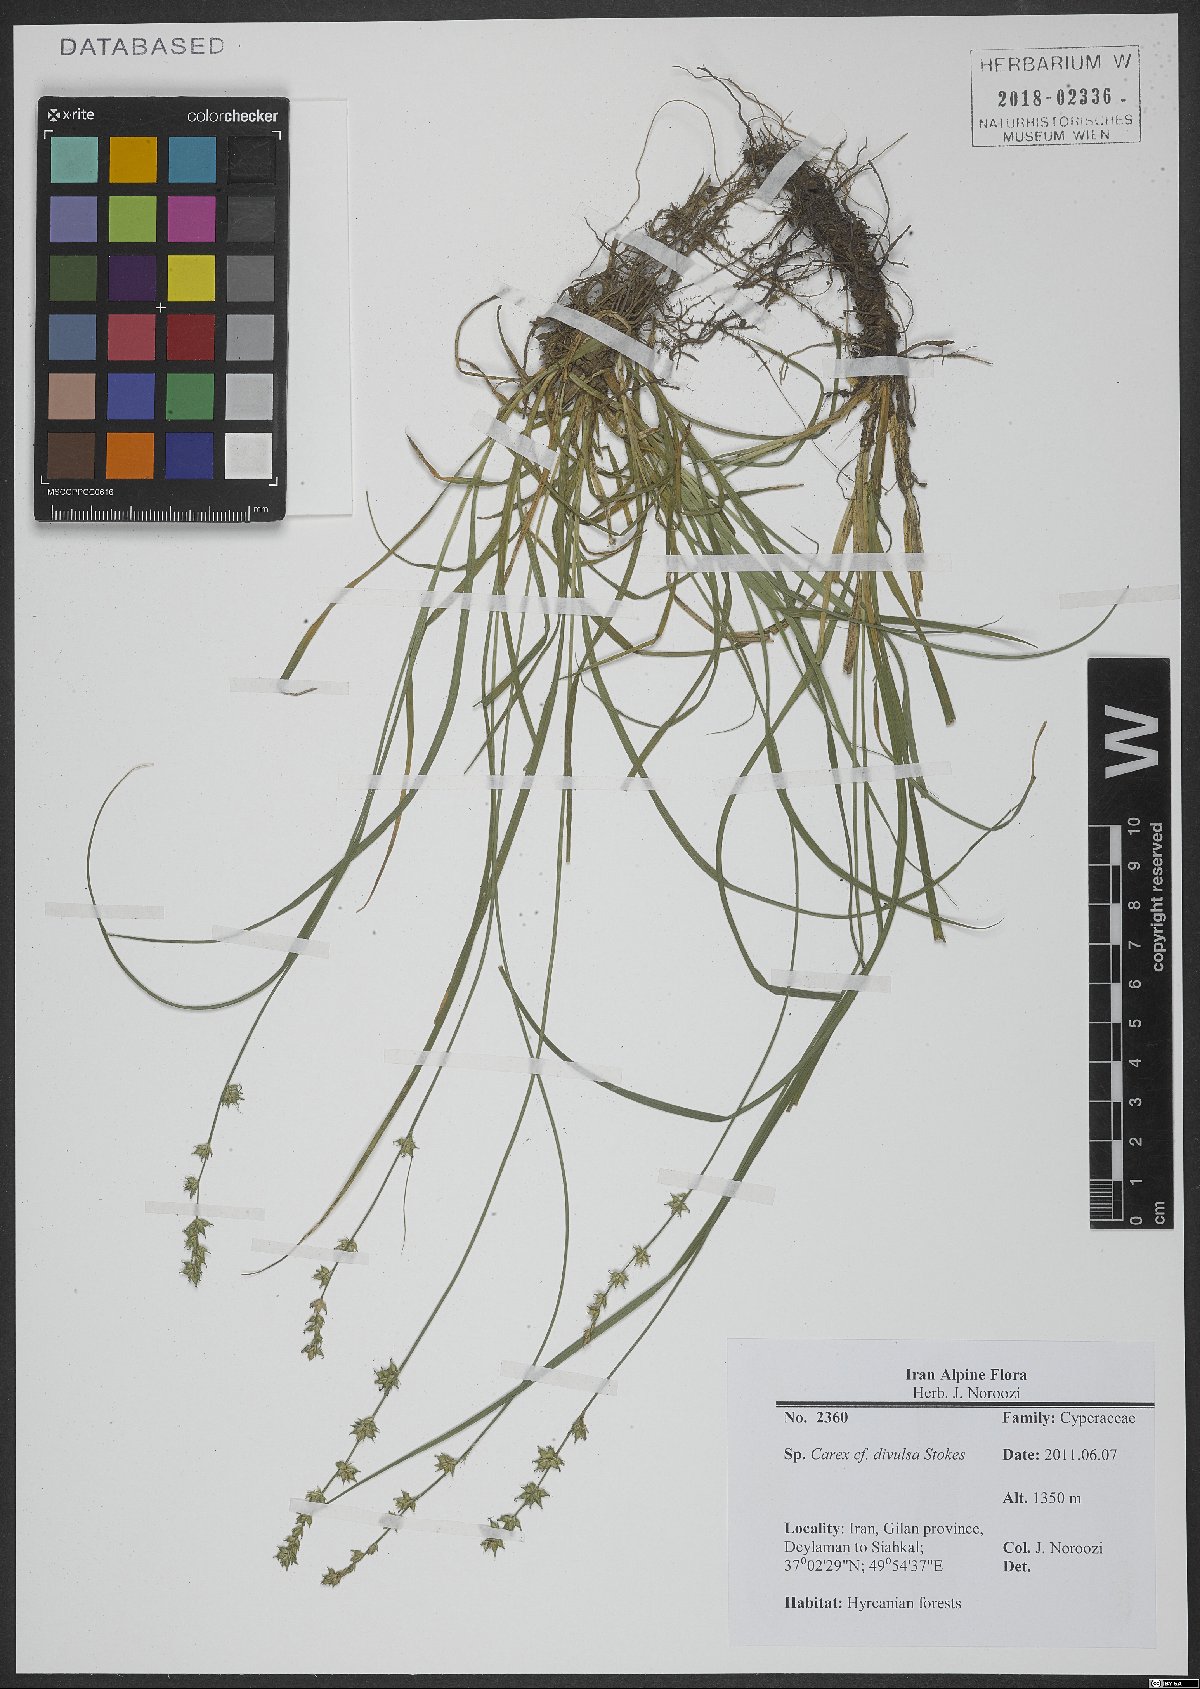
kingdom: Plantae
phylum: Tracheophyta
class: Liliopsida
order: Poales
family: Cyperaceae
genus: Carex
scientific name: Carex divulsa
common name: Grassland sedge
